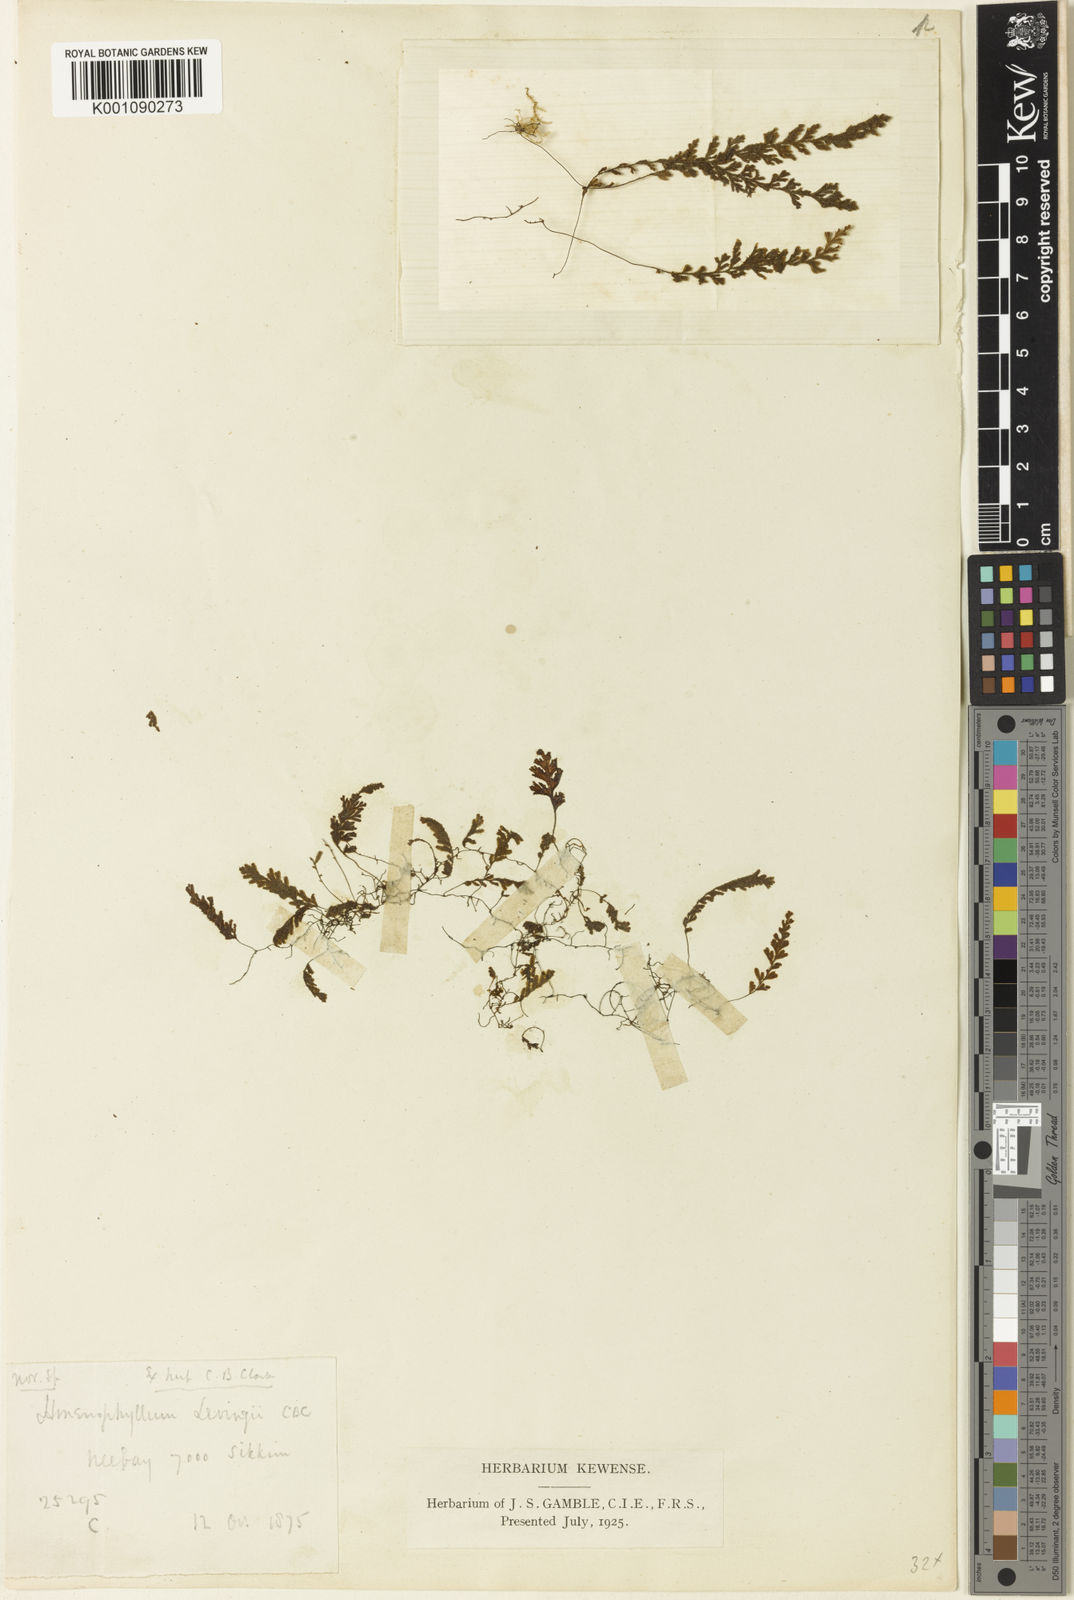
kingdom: Plantae
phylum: Tracheophyta
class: Polypodiopsida
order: Hymenophyllales
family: Hymenophyllaceae
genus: Hymenophyllum
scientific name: Hymenophyllum levingei
